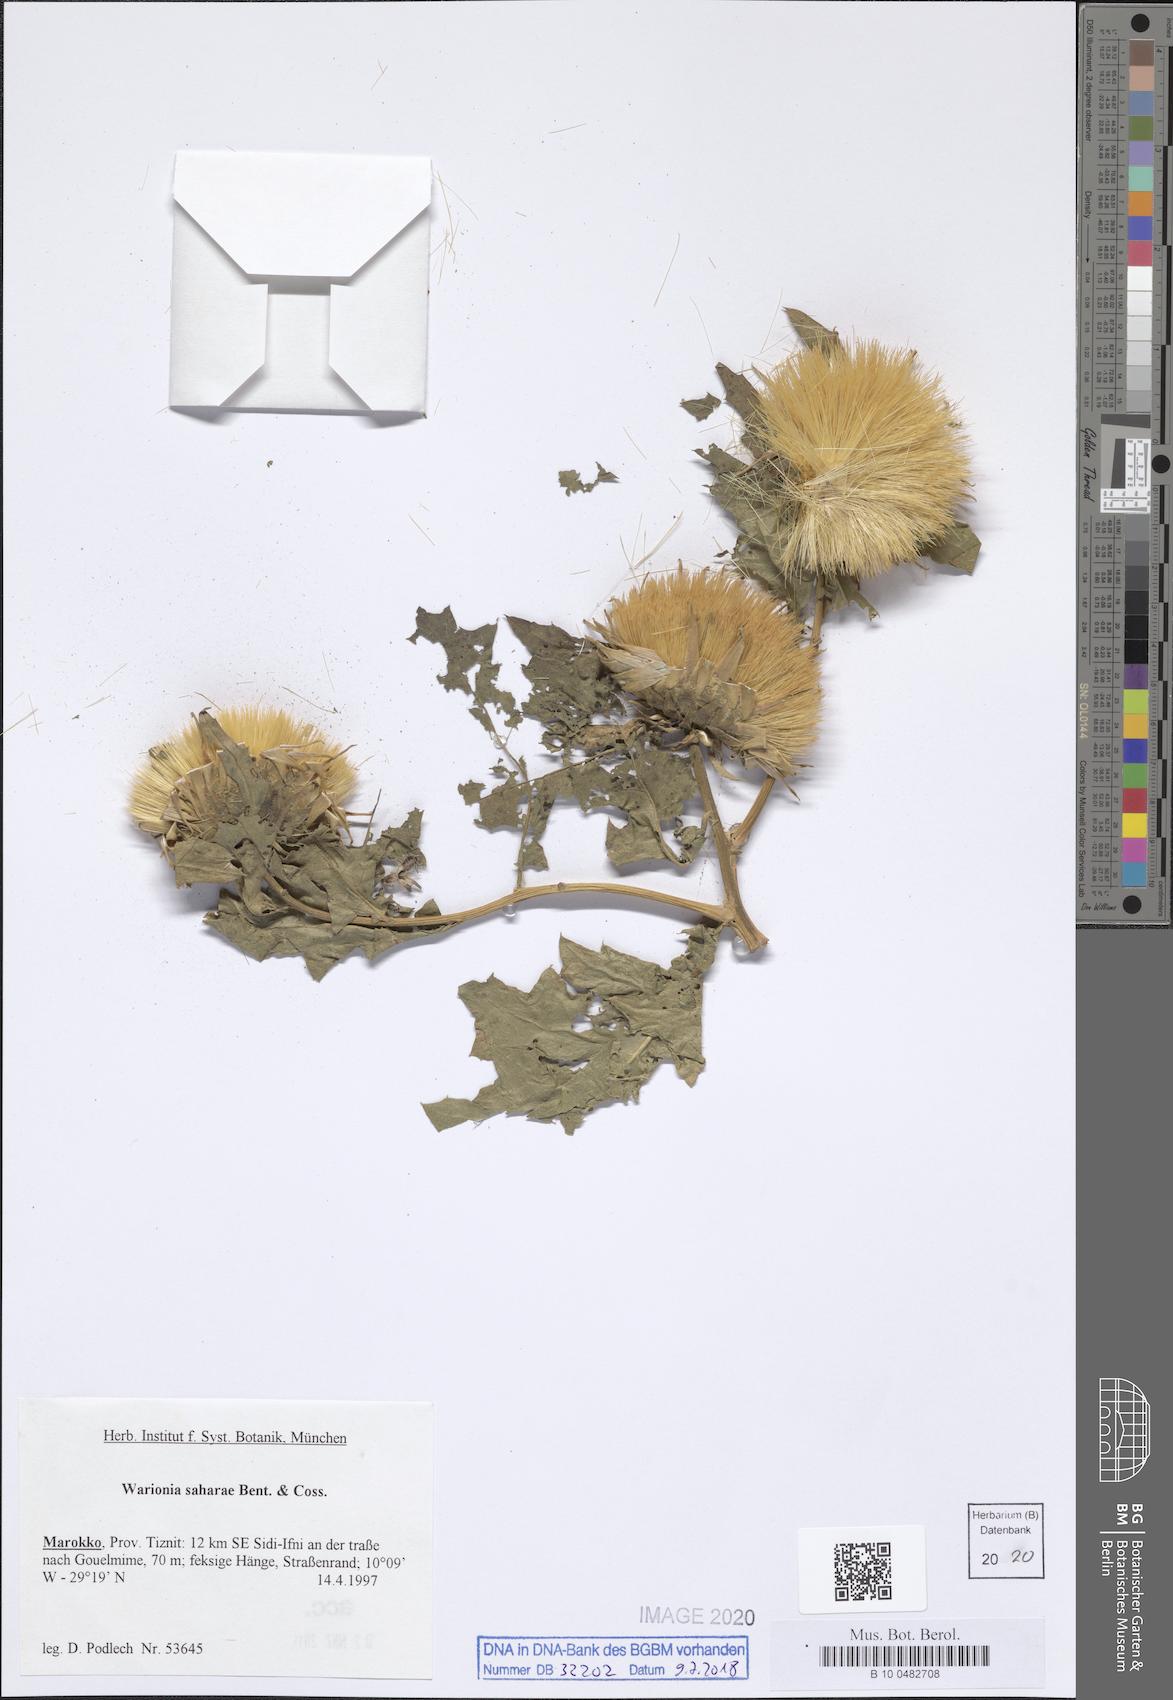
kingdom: Plantae
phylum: Tracheophyta
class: Magnoliopsida
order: Asterales
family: Asteraceae
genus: Warionia
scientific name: Warionia saharae
